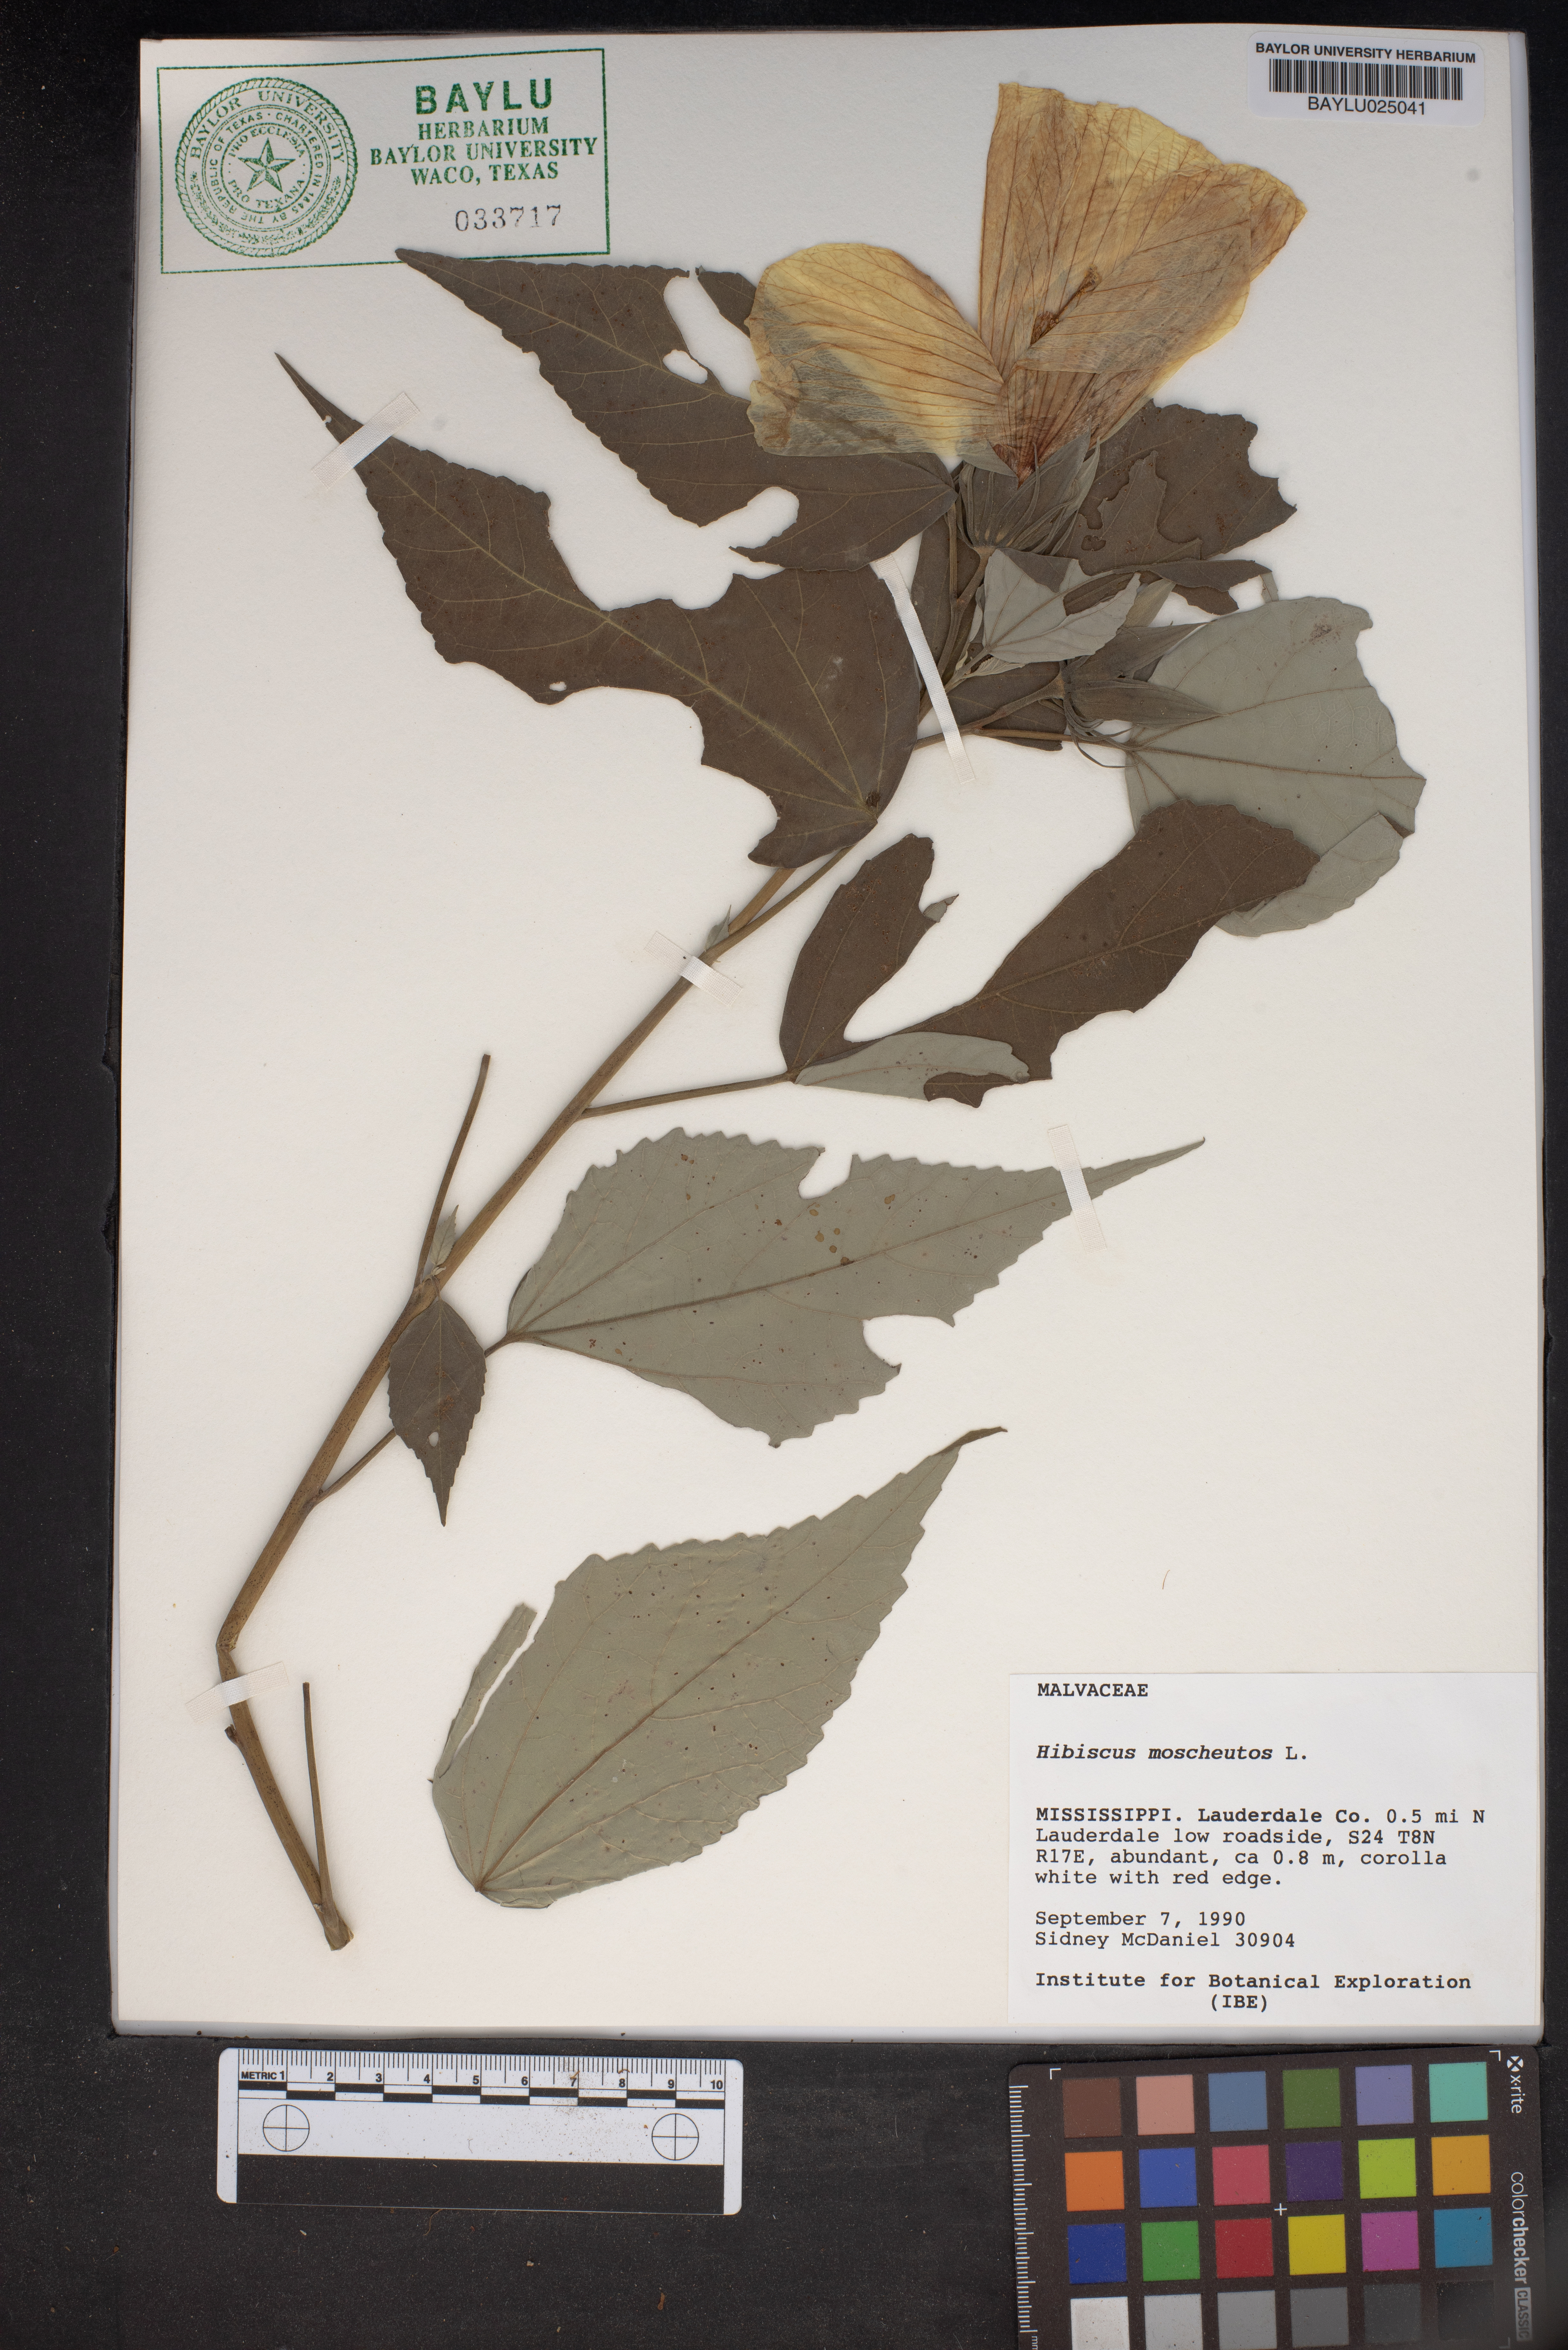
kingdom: Plantae
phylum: Tracheophyta
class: Magnoliopsida
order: Malvales
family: Malvaceae
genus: Hibiscus
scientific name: Hibiscus moscheutos
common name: Common rose-mallow
